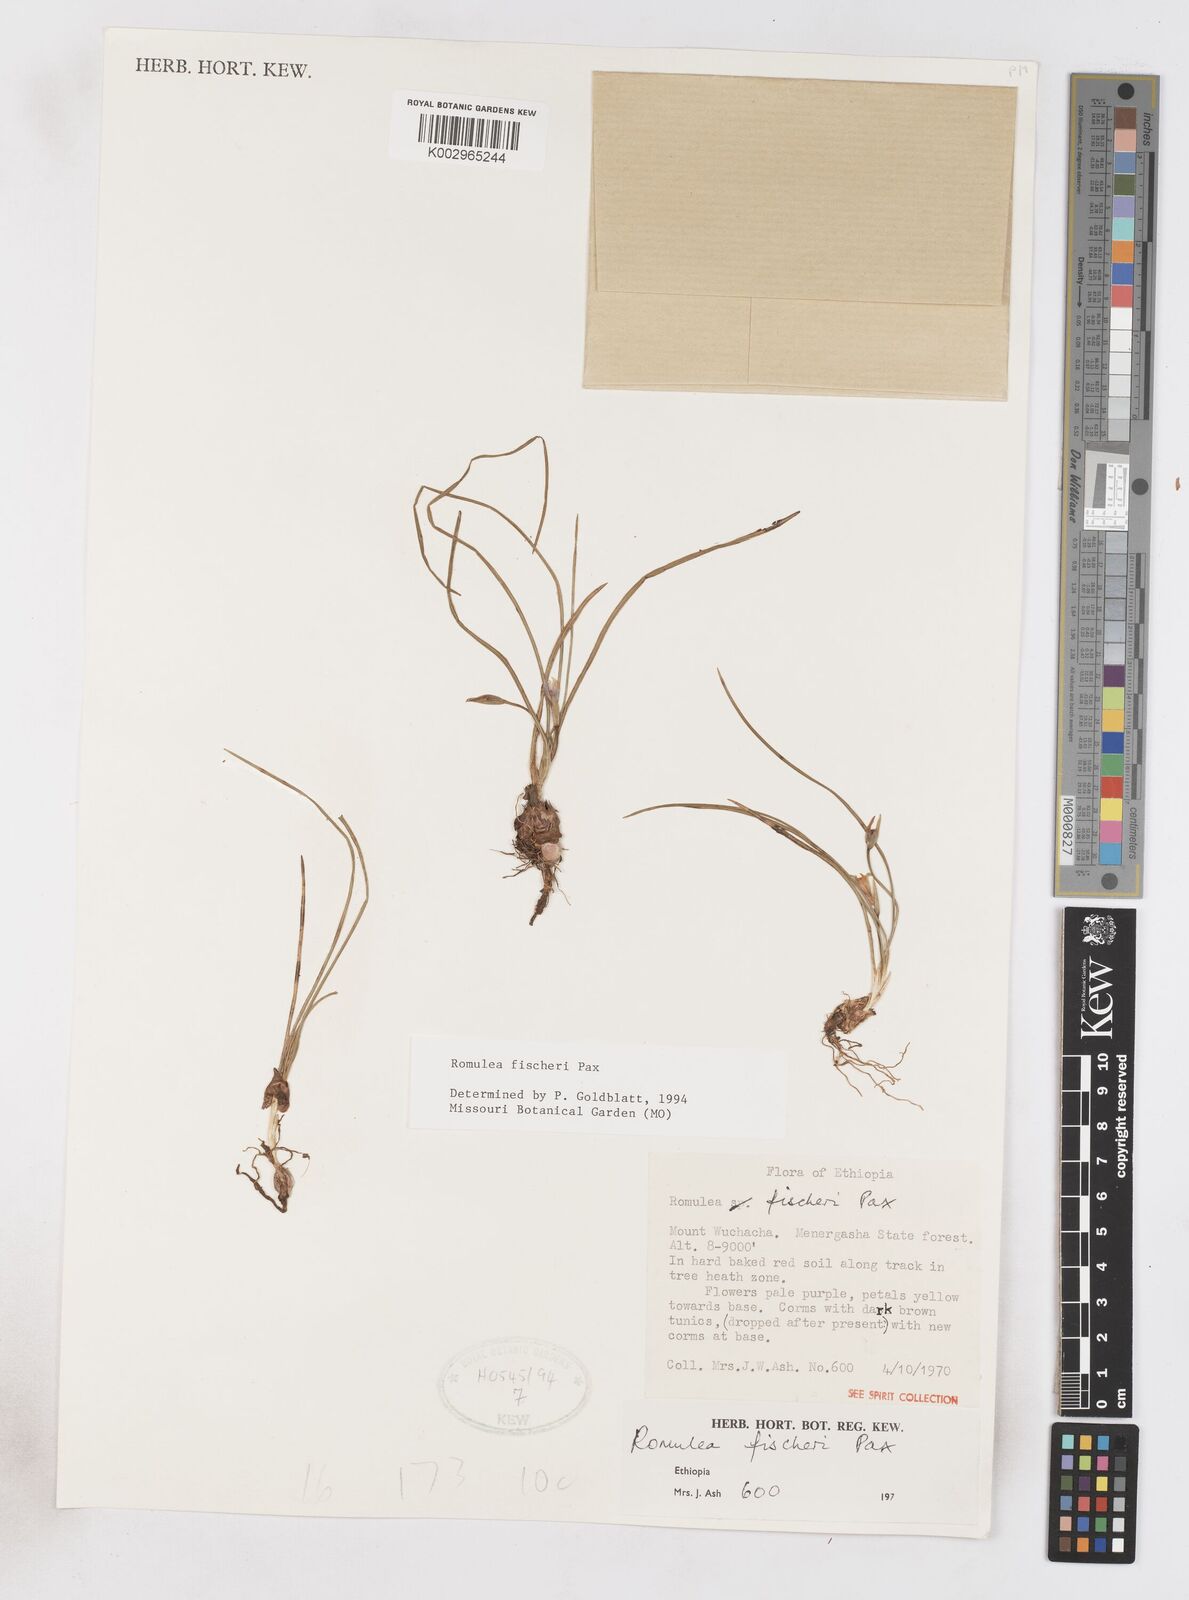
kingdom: Plantae
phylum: Tracheophyta
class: Liliopsida
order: Asparagales
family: Iridaceae
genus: Romulea
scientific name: Romulea fischeri
